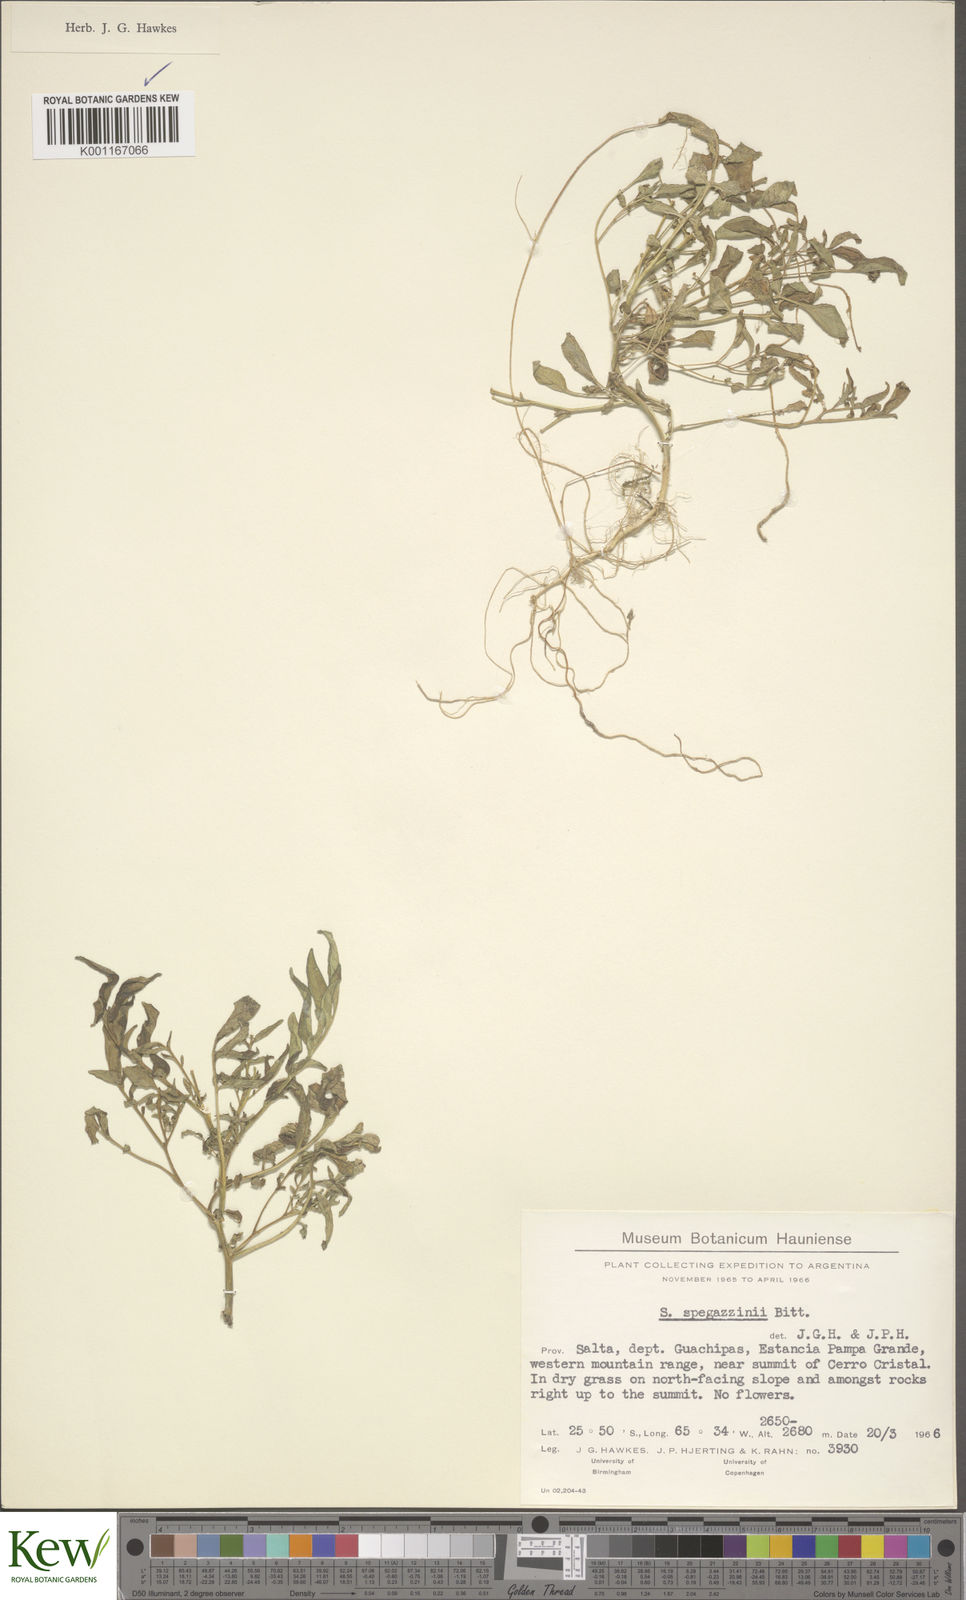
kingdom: Plantae
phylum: Tracheophyta
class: Magnoliopsida
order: Solanales
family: Solanaceae
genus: Solanum
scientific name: Solanum brevicaule
